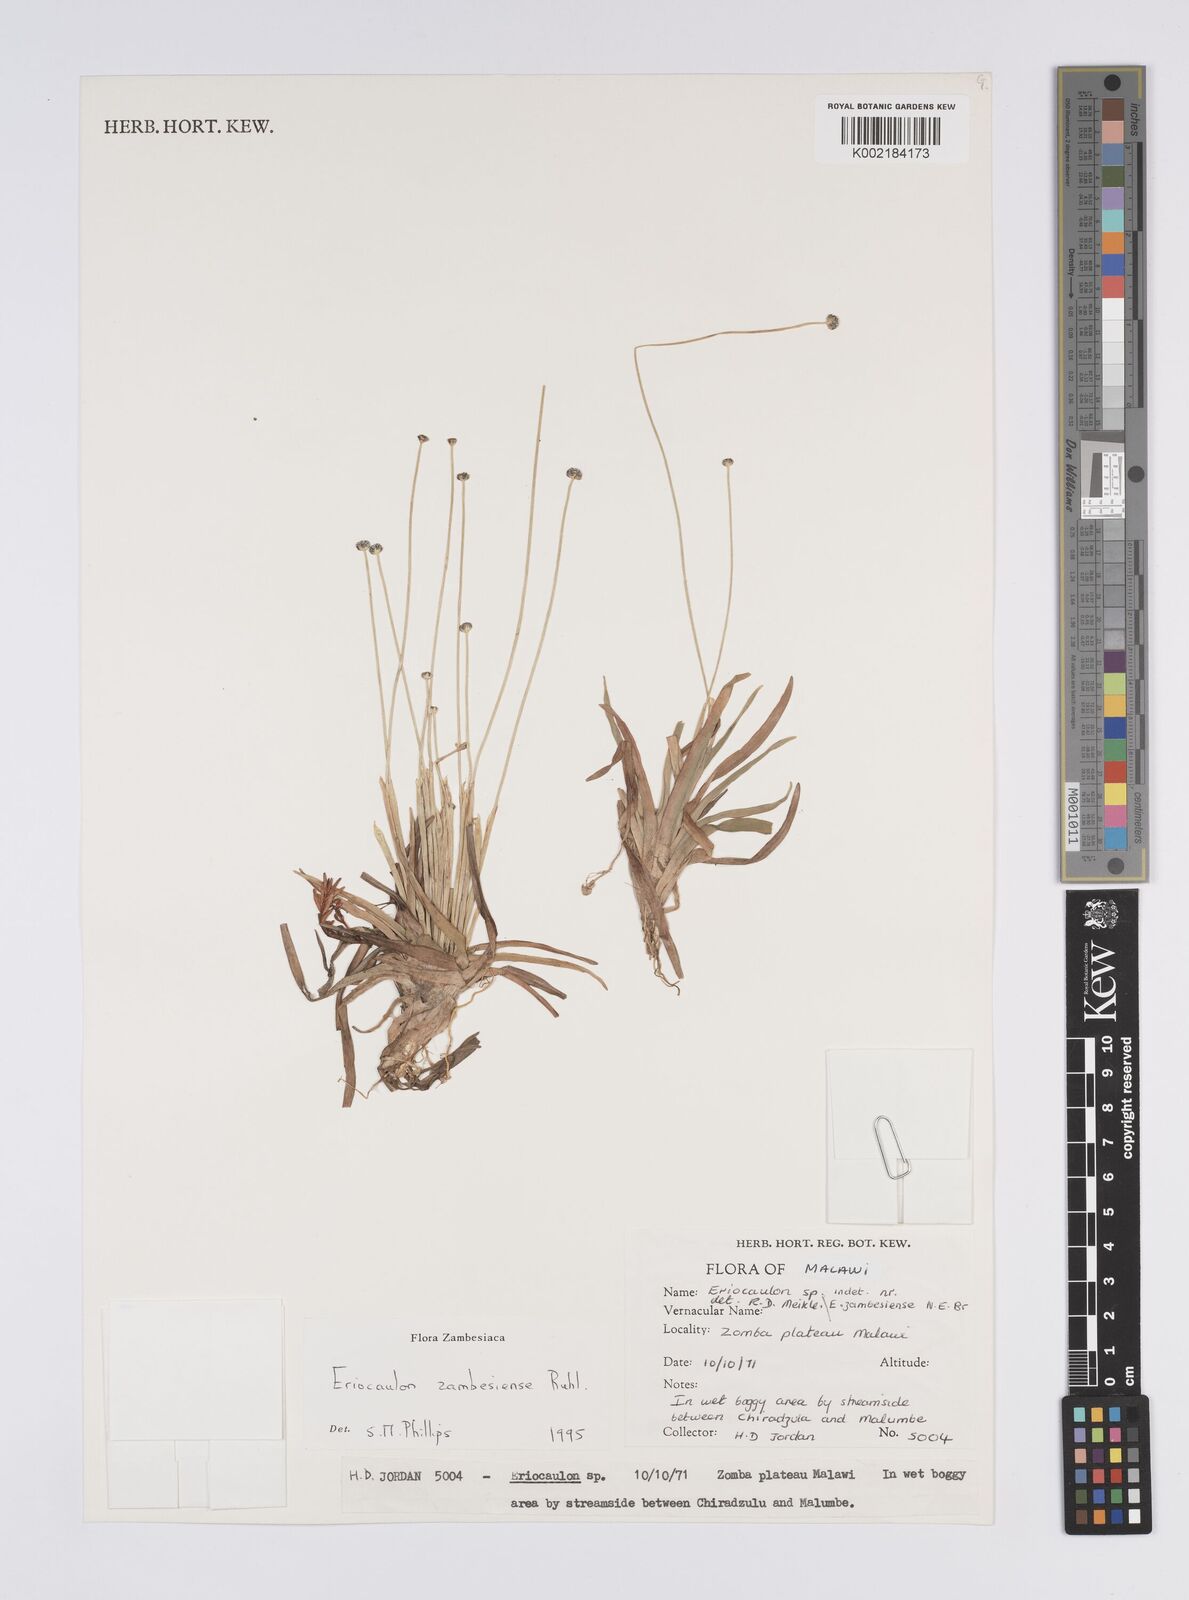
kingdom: Plantae
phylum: Tracheophyta
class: Liliopsida
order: Poales
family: Eriocaulaceae
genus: Eriocaulon
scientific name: Eriocaulon zambesiense
